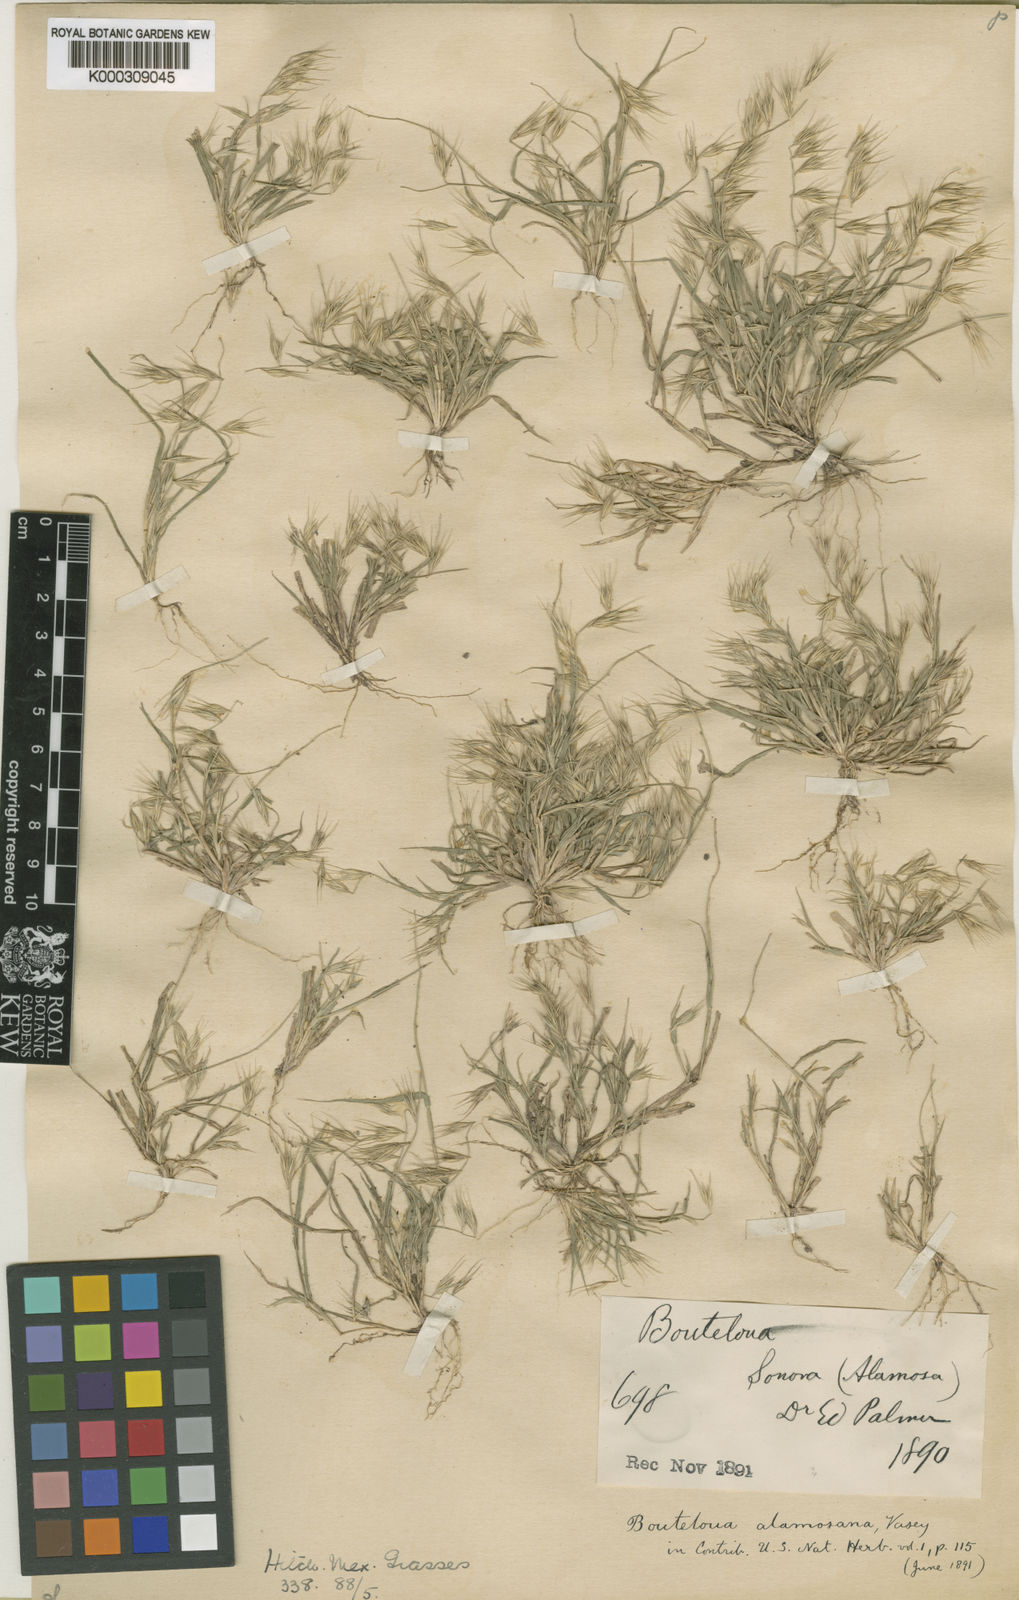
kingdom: Plantae
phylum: Tracheophyta
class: Liliopsida
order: Poales
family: Poaceae
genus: Bouteloua
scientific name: Bouteloua
